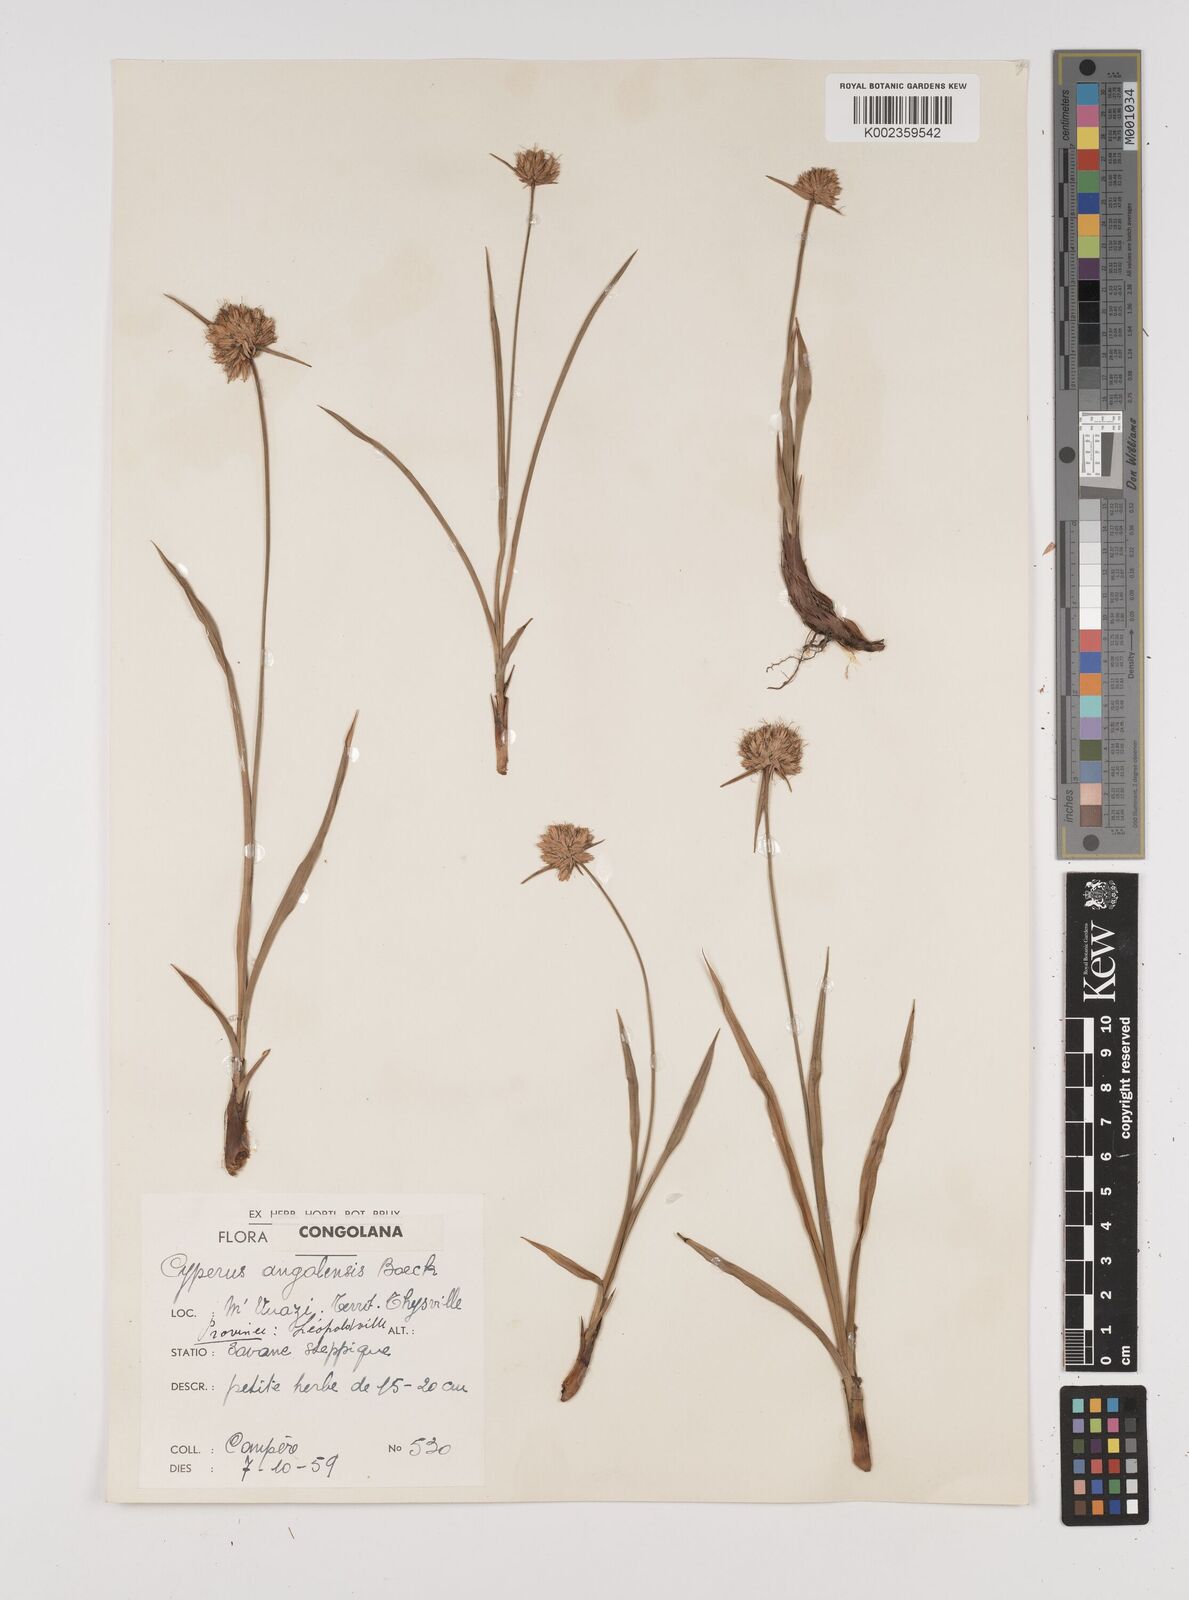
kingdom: Plantae
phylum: Tracheophyta
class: Liliopsida
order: Poales
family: Cyperaceae
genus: Cyperus
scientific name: Cyperus angolensis
